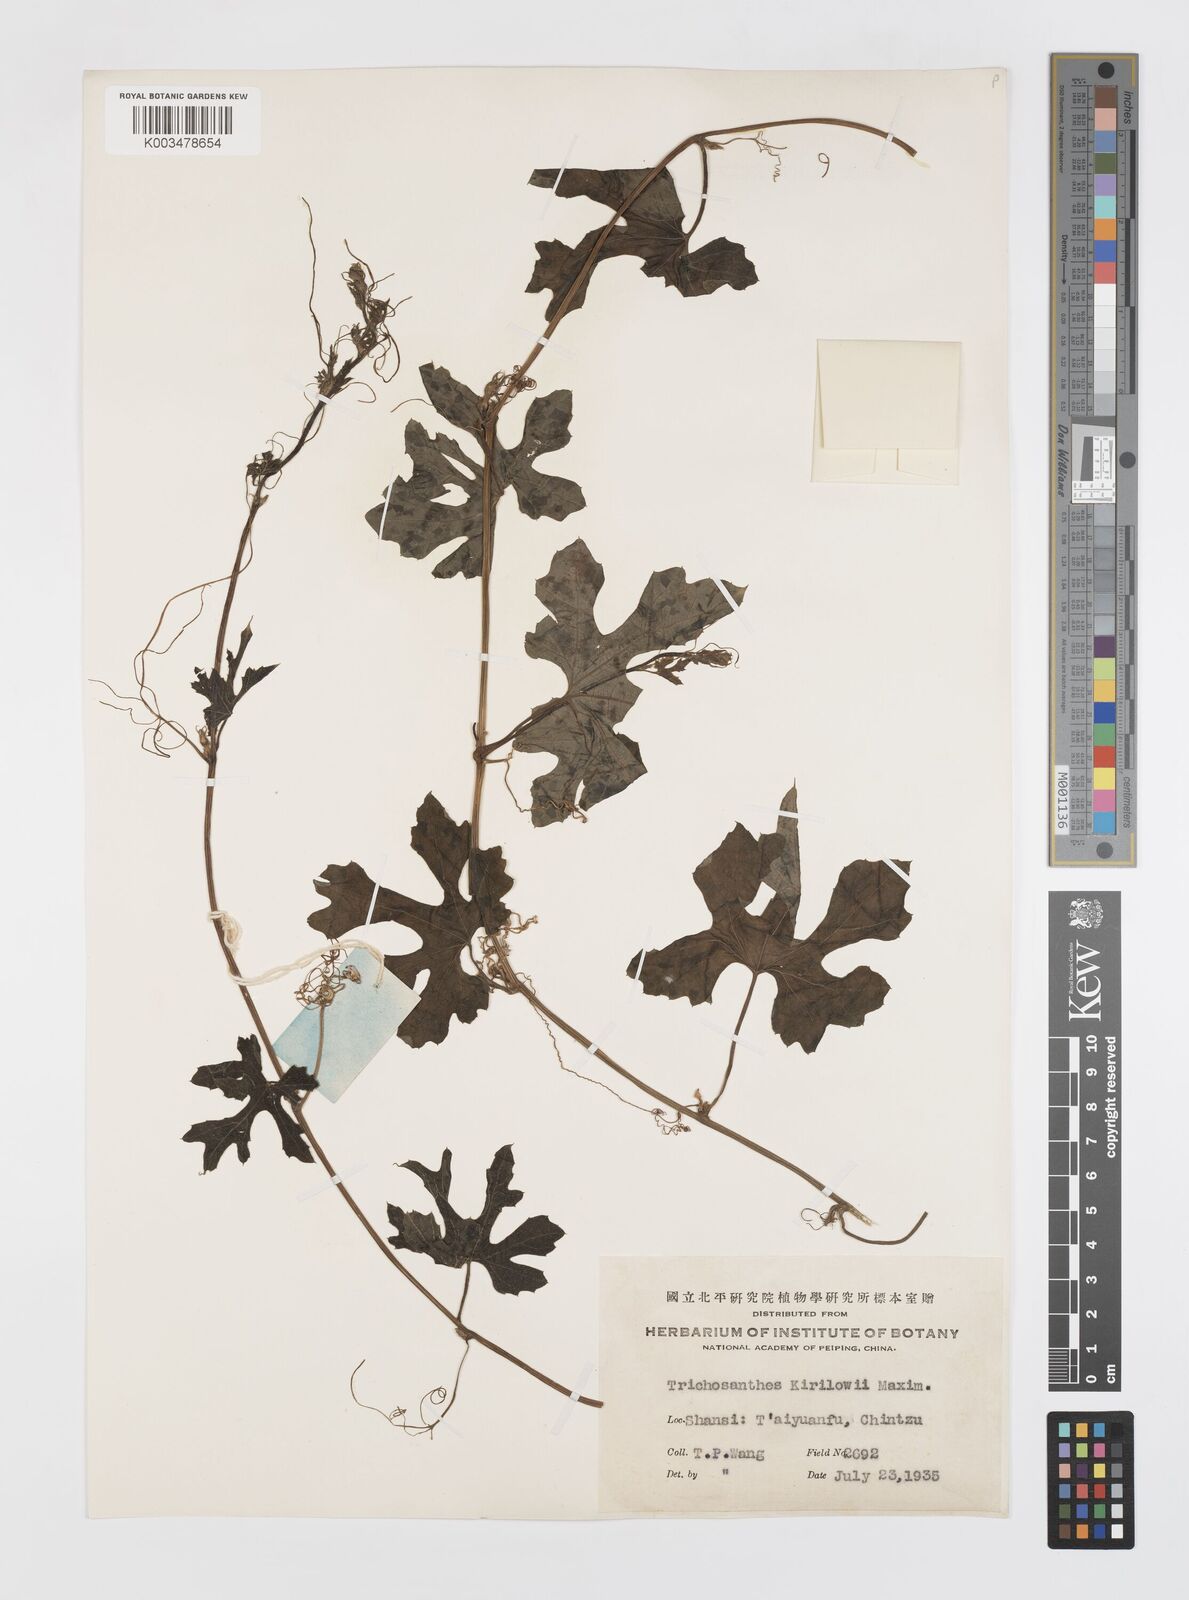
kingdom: Plantae
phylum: Tracheophyta
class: Magnoliopsida
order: Cucurbitales
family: Cucurbitaceae
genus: Trichosanthes
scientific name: Trichosanthes kirilowii
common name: Chinese-cucumber
